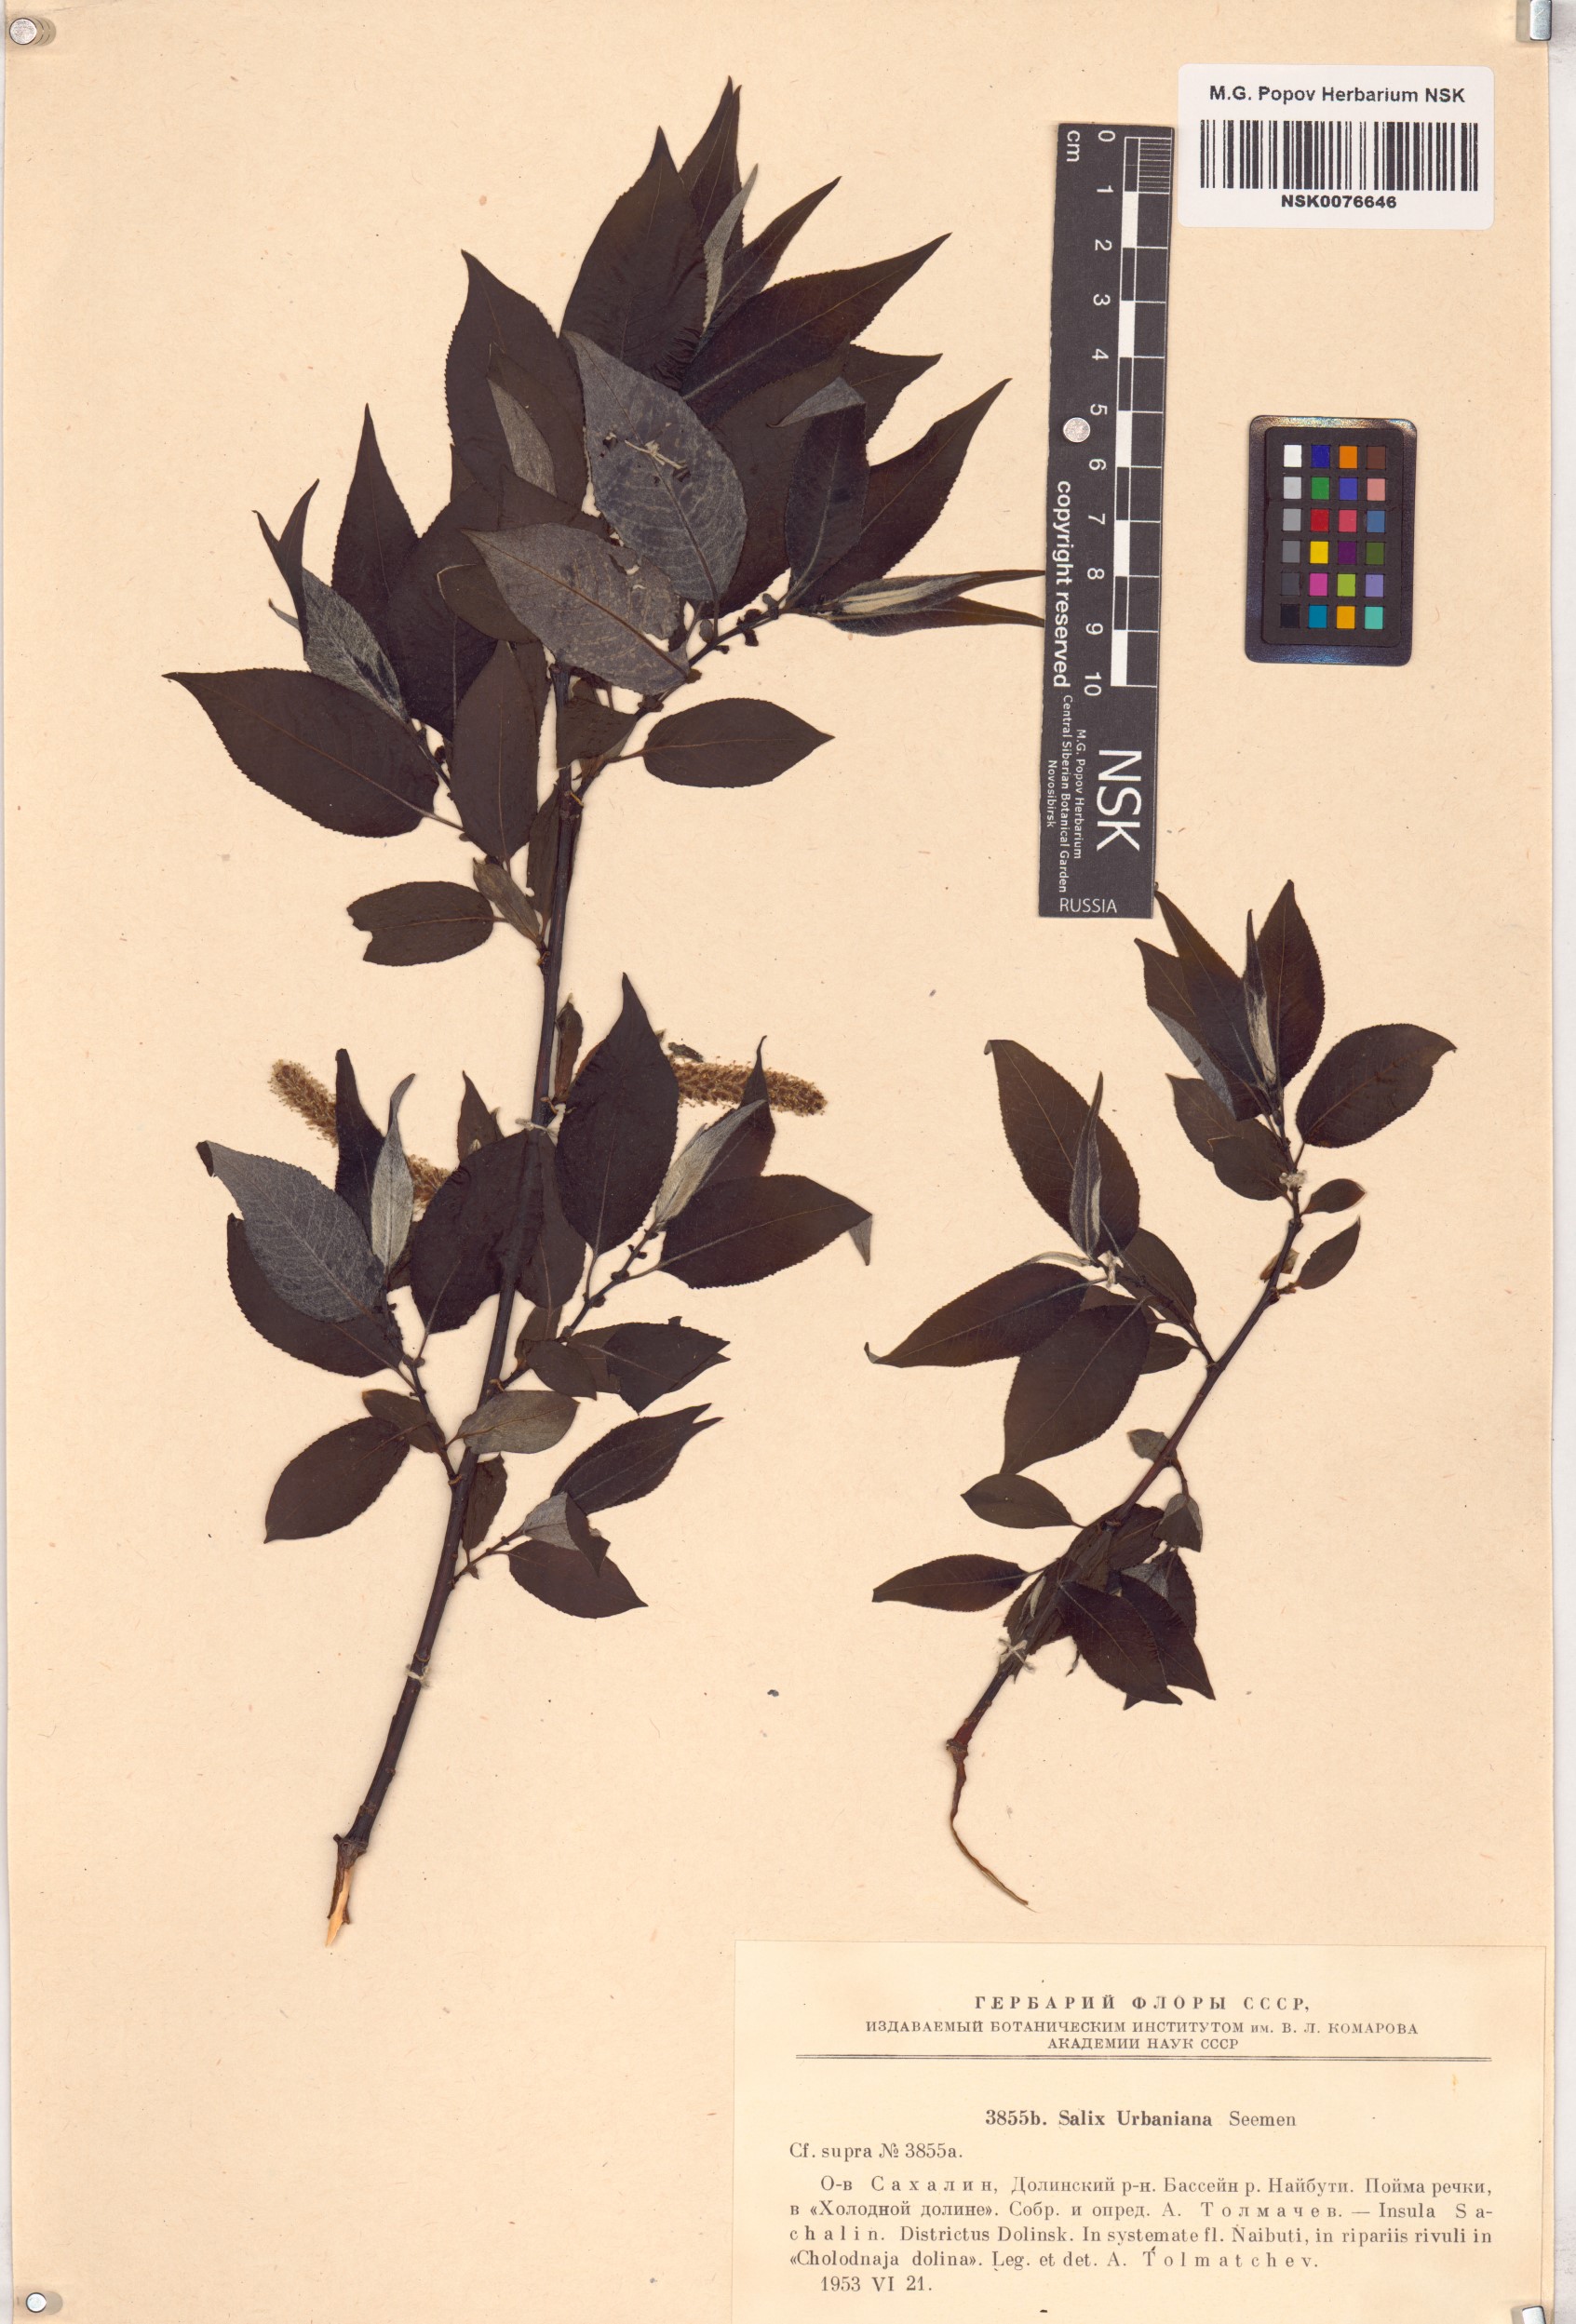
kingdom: Plantae
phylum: Tracheophyta
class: Magnoliopsida
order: Malpighiales
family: Salicaceae
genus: Chosenia
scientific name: Chosenia urbaniana
